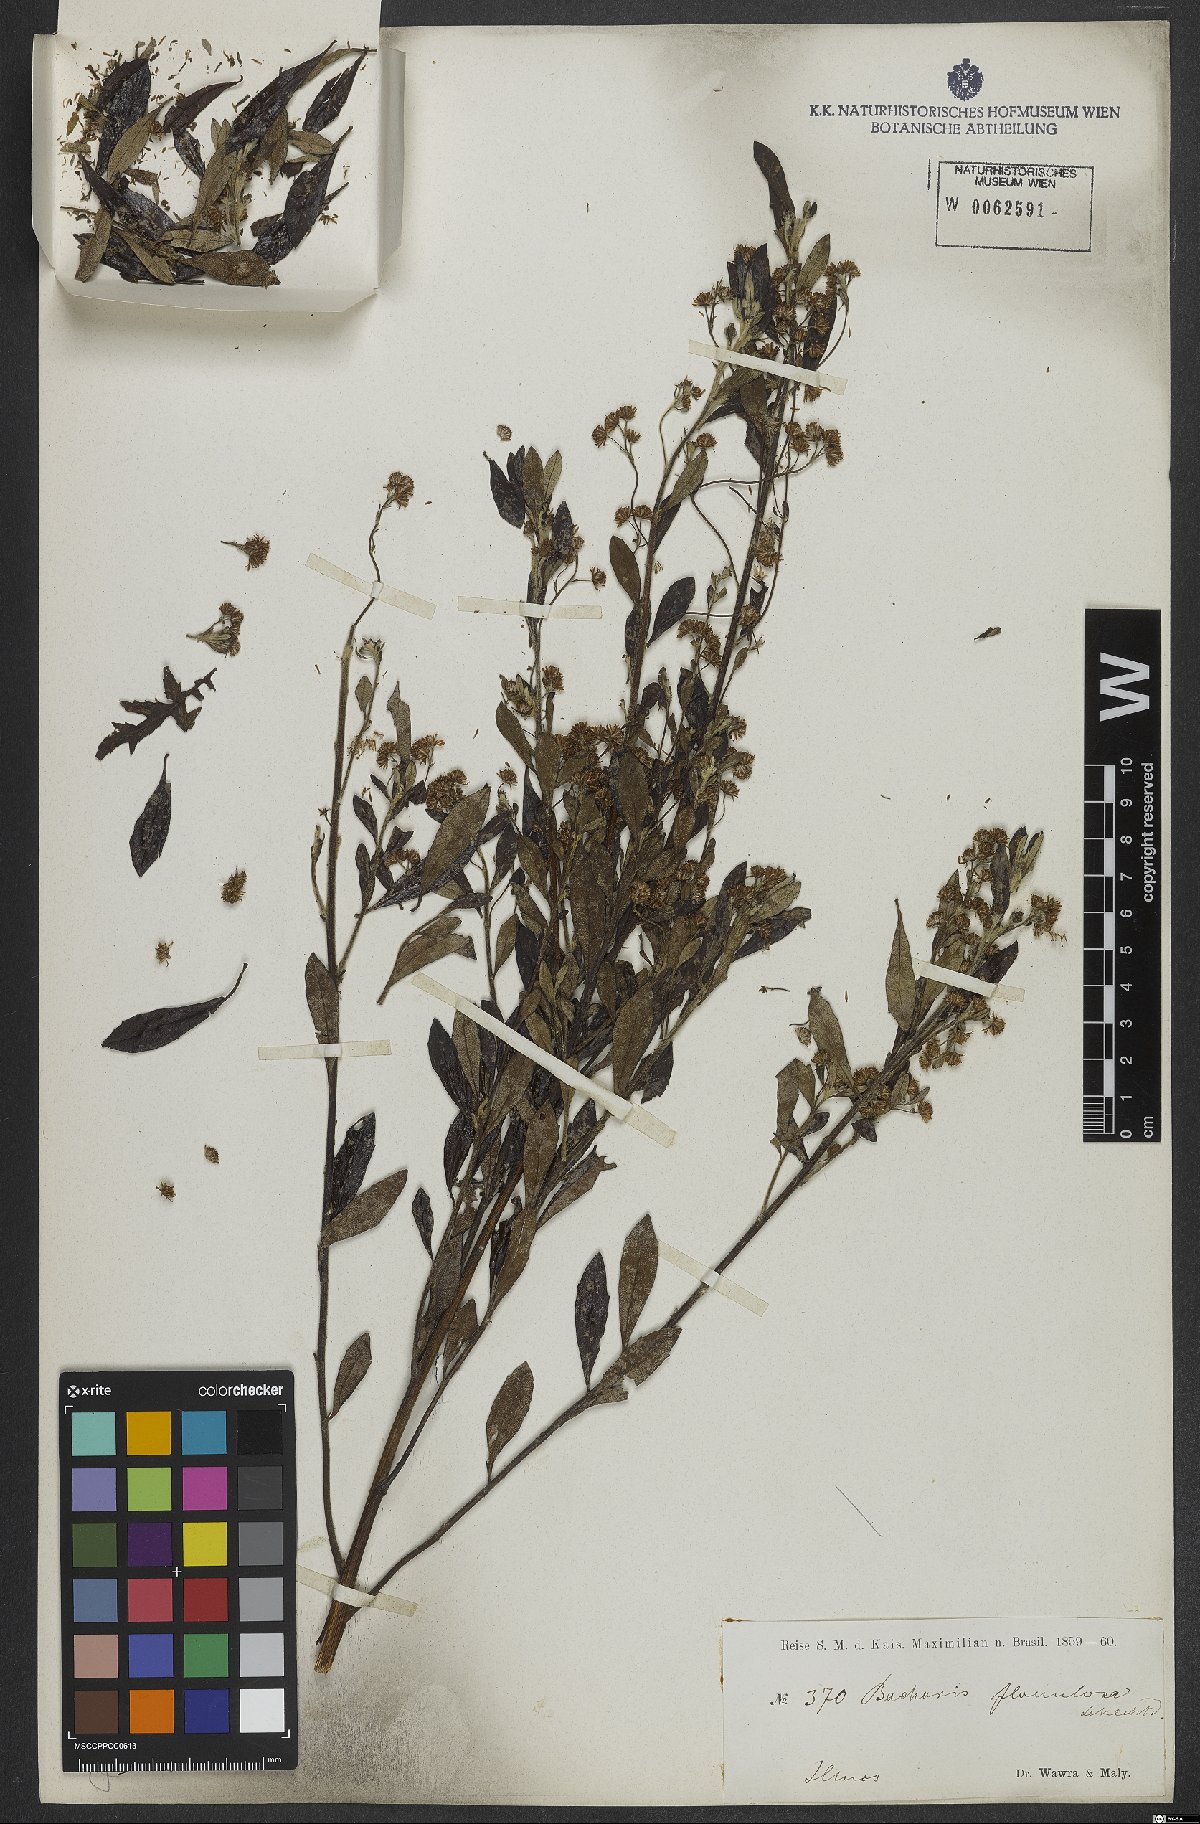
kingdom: Plantae
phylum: Tracheophyta
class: Magnoliopsida
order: Asterales
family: Asteraceae
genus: Baccharis
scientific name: Baccharis calvescens
